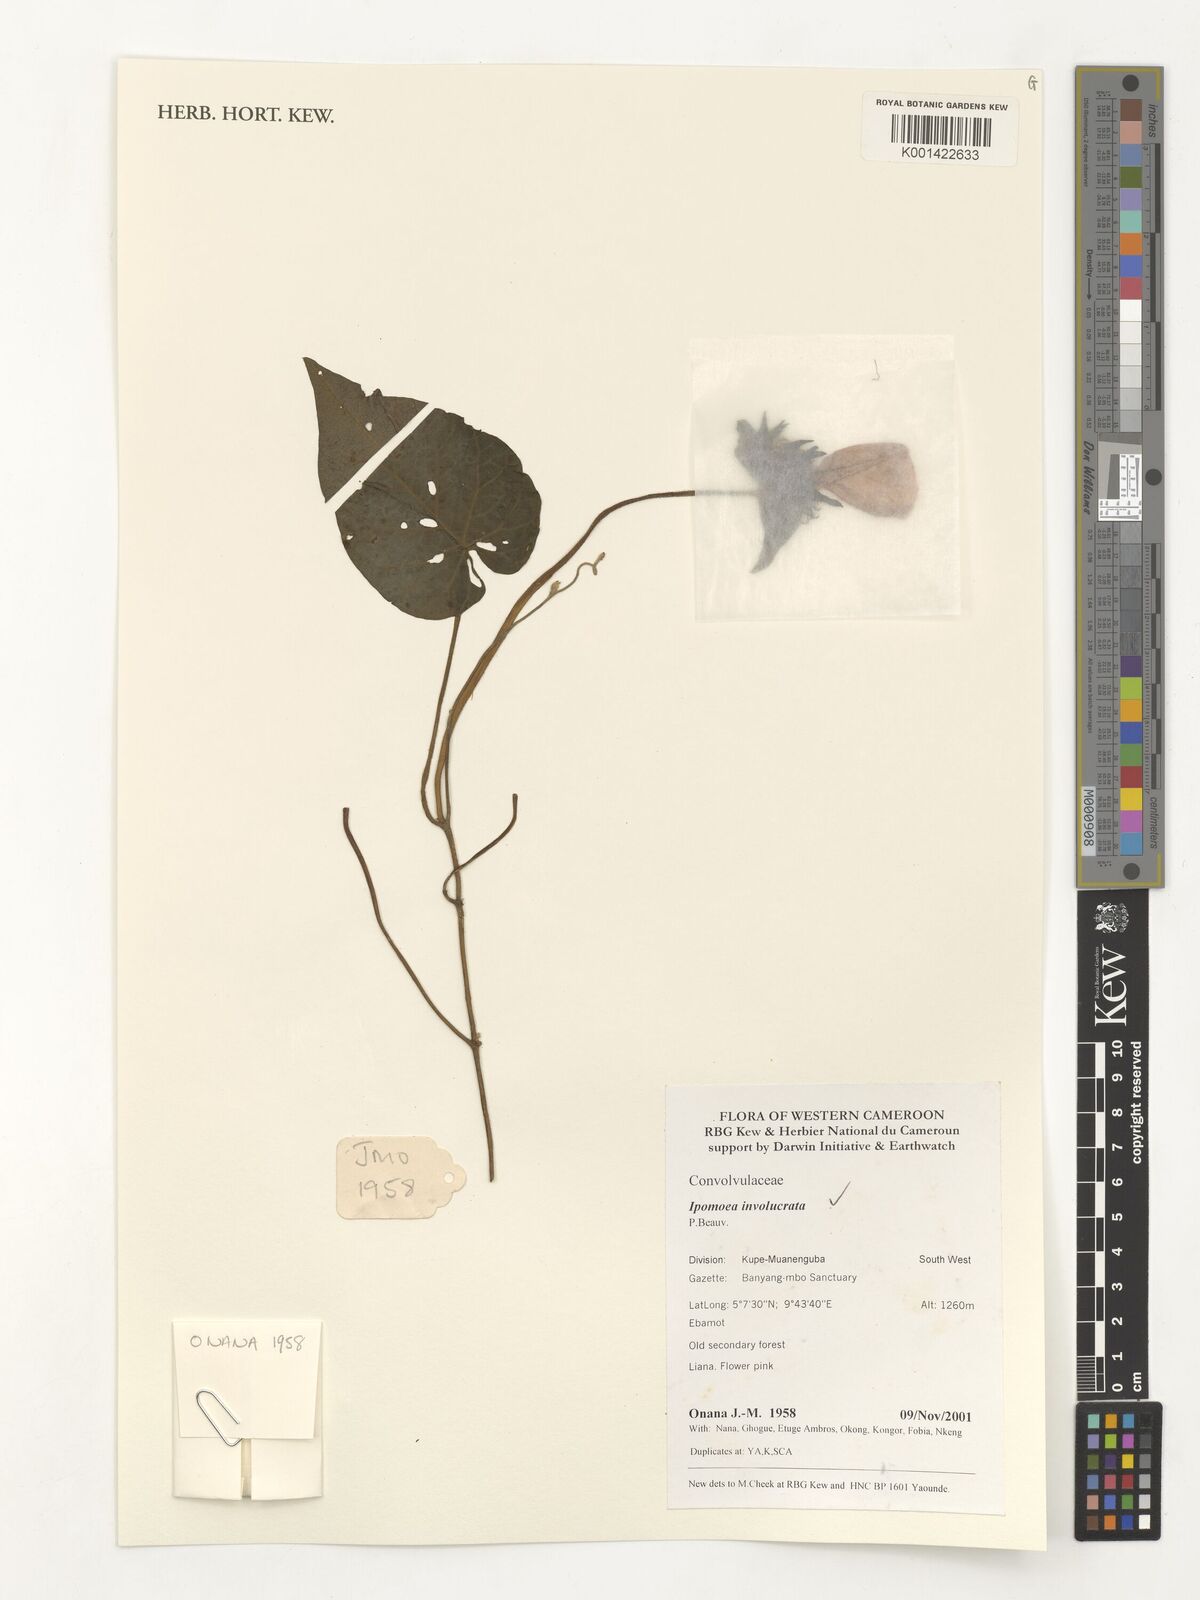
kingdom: Plantae
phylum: Tracheophyta
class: Magnoliopsida
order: Solanales
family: Convolvulaceae
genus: Ipomoea
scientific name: Ipomoea involucrata
